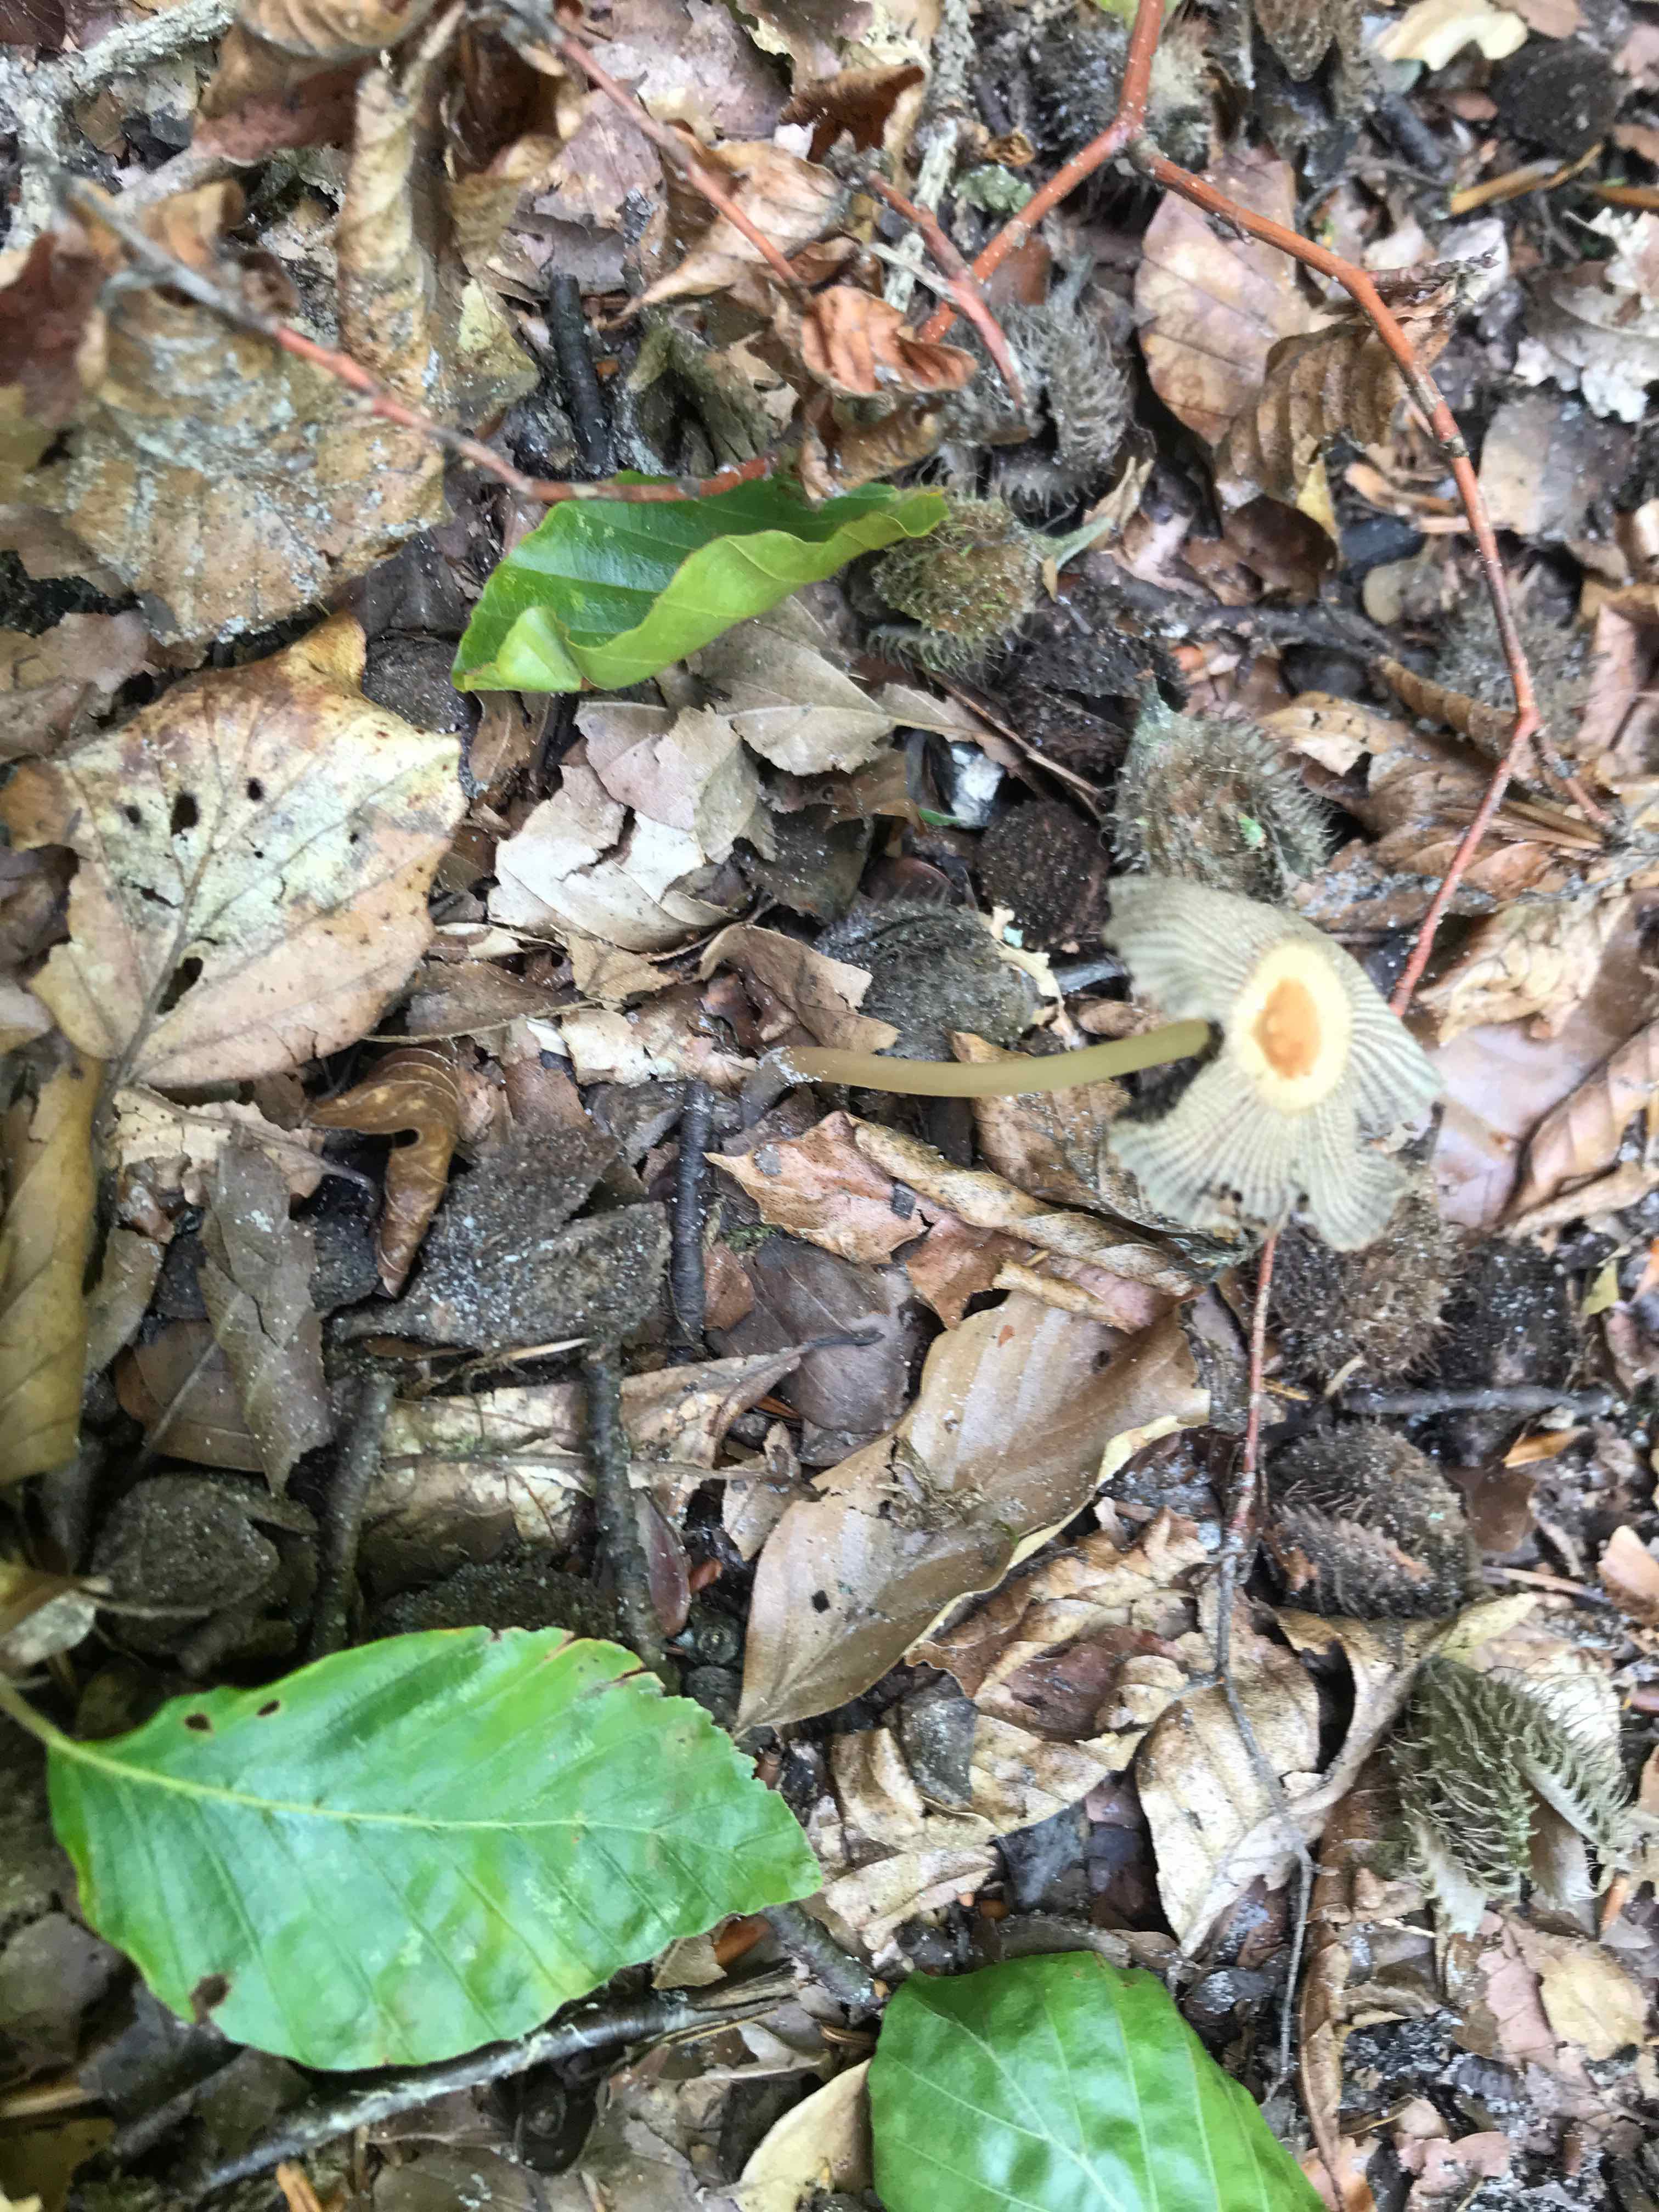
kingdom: Fungi
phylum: Basidiomycota
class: Agaricomycetes
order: Agaricales
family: Psathyrellaceae
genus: Parasola
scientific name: Parasola
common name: hjulhat
